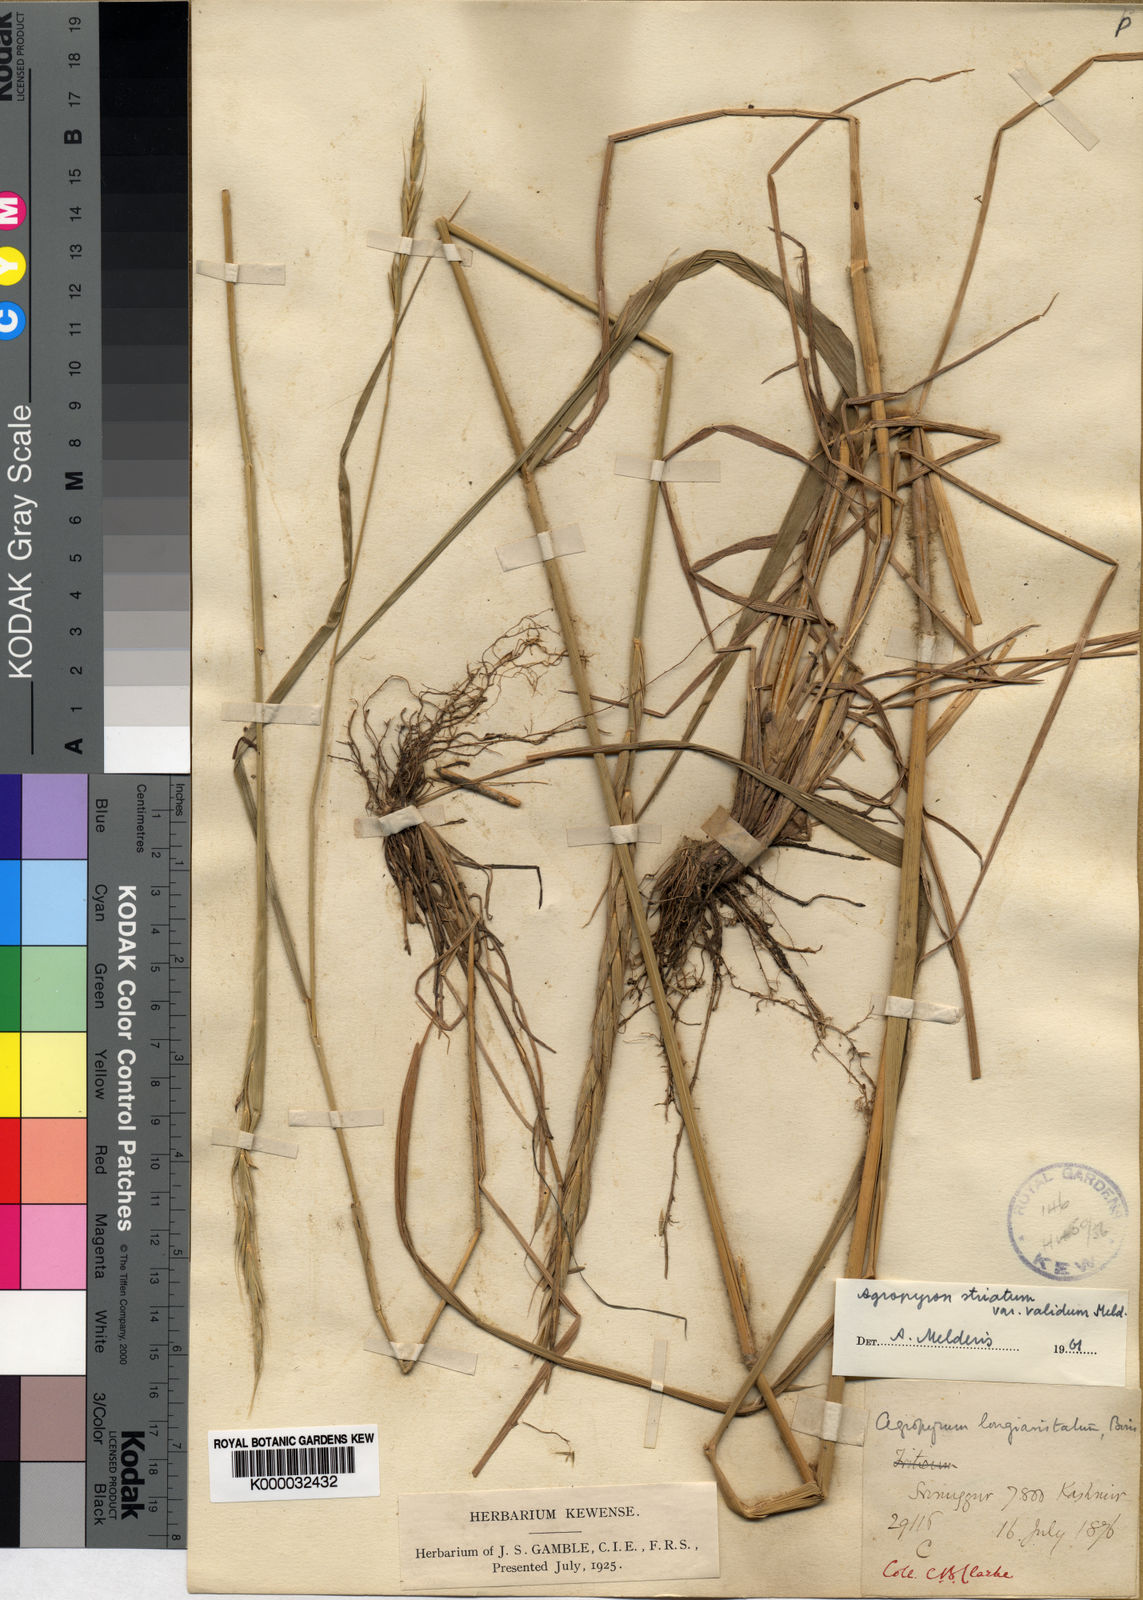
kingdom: Plantae
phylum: Tracheophyta
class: Liliopsida
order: Poales
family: Poaceae
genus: Elymus
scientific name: Elymus semicostatus
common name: Drooping wildrye
